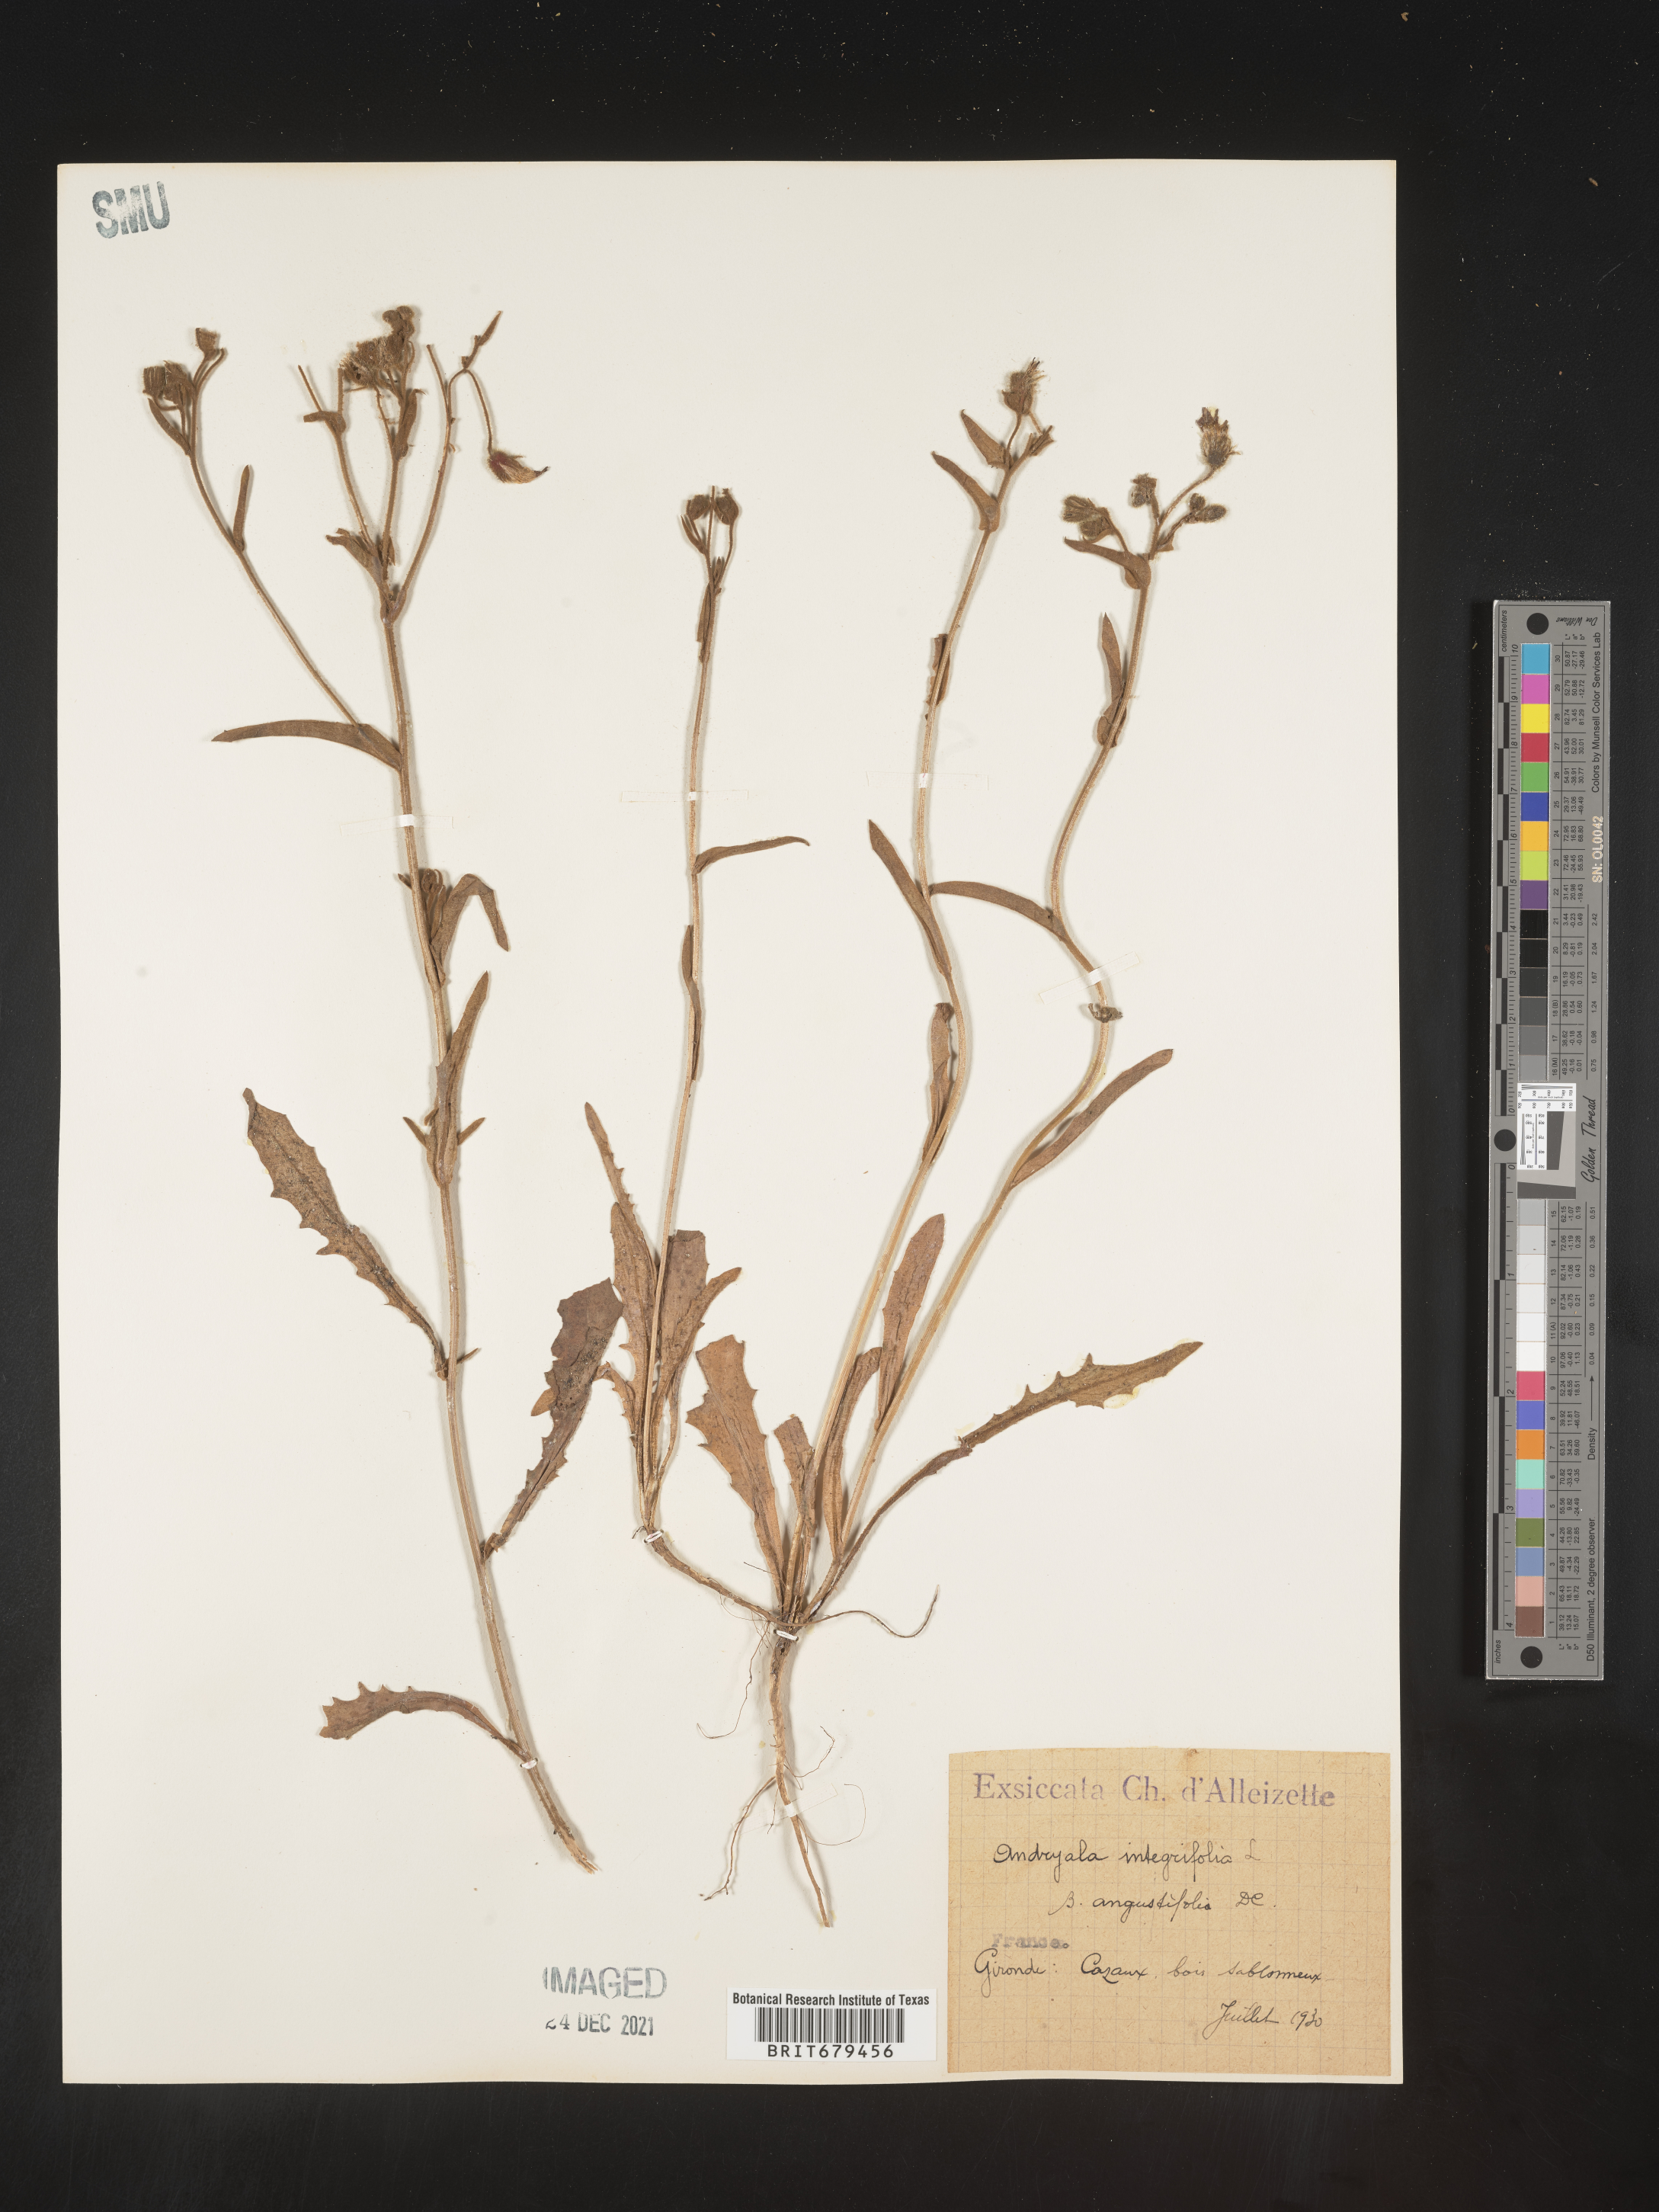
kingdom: Plantae
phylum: Tracheophyta
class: Magnoliopsida
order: Asterales
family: Asteraceae
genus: Andryala
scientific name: Andryala
